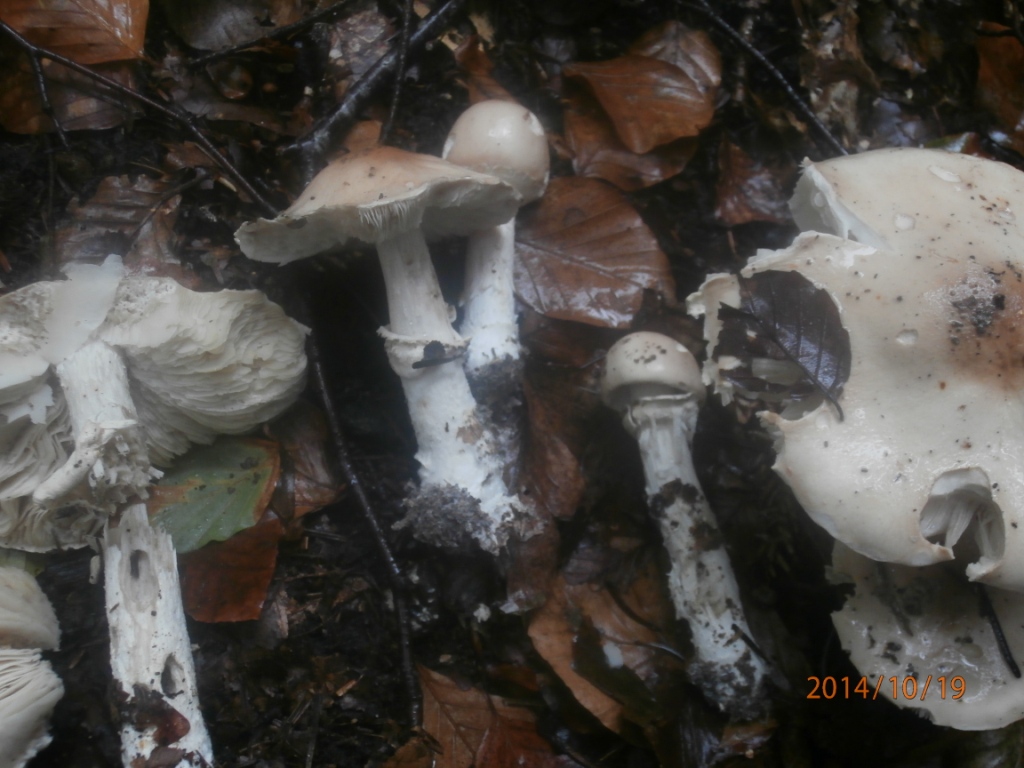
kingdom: Fungi
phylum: Basidiomycota
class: Agaricomycetes
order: Agaricales
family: Amanitaceae
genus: Amanita
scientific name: Amanita porphyria
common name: porfyr-fluesvamp
